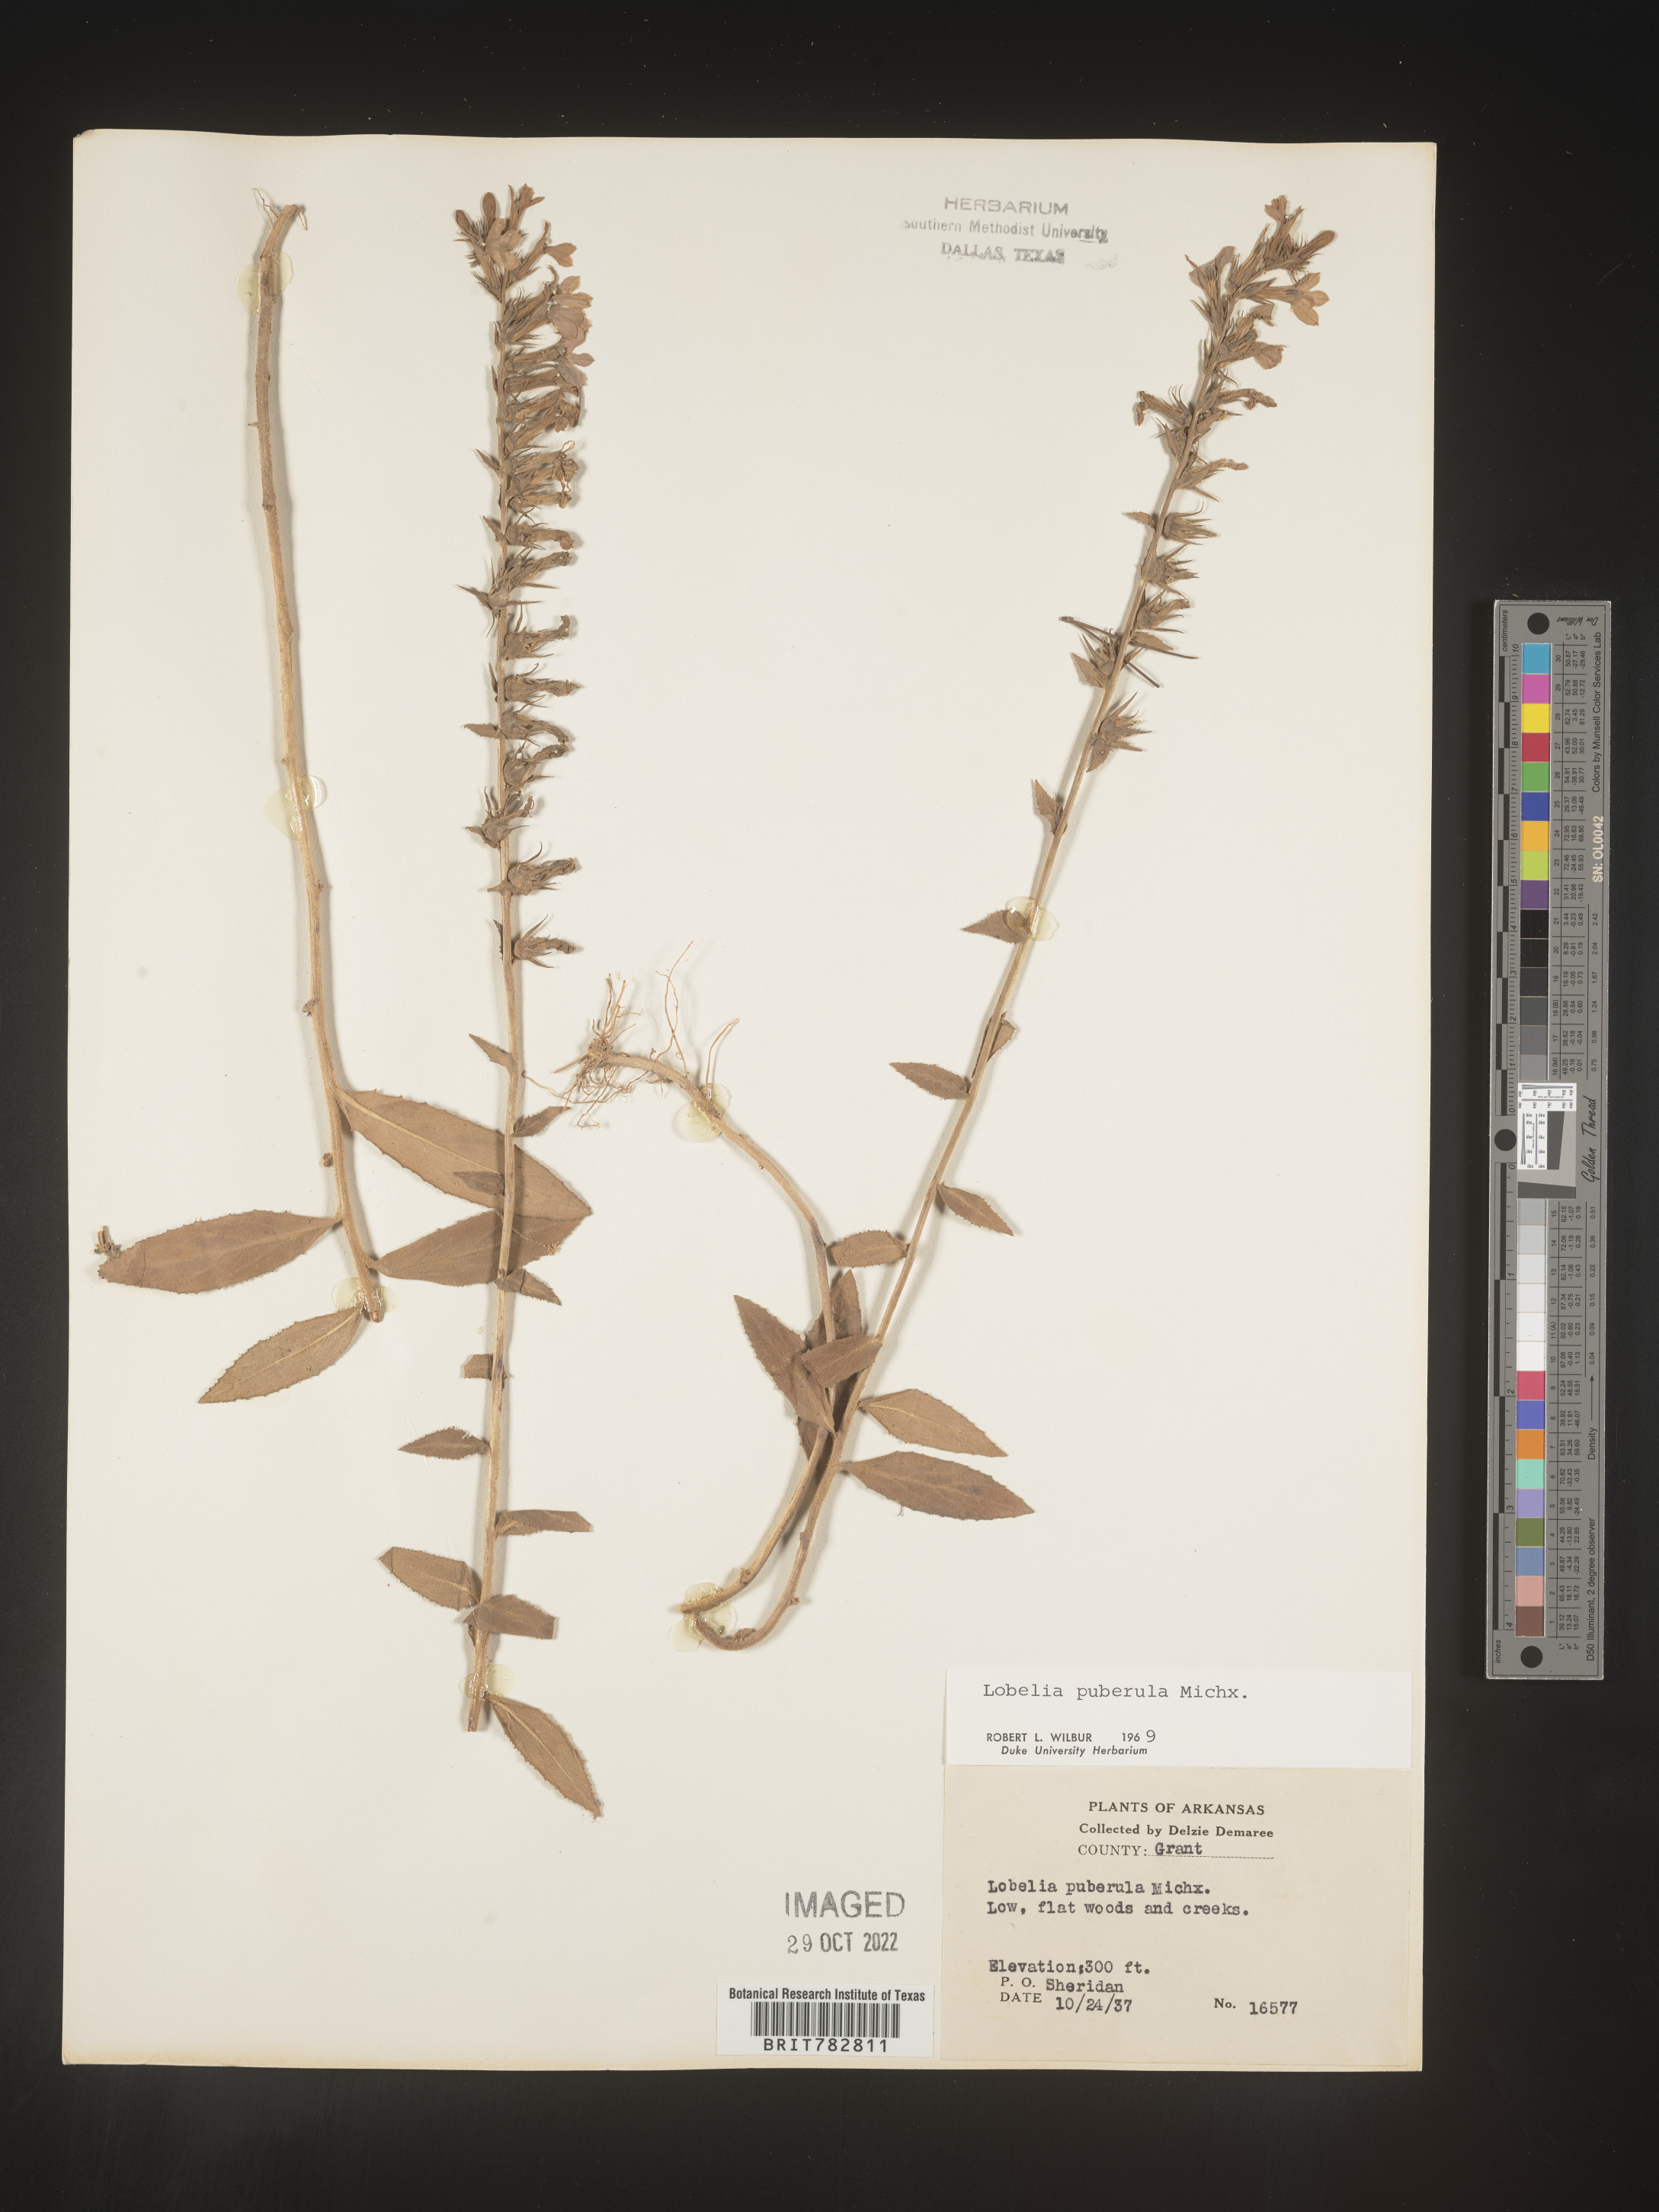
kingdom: Plantae
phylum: Tracheophyta
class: Magnoliopsida
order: Asterales
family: Campanulaceae
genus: Lobelia
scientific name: Lobelia puberula
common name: Purple dewdrop
